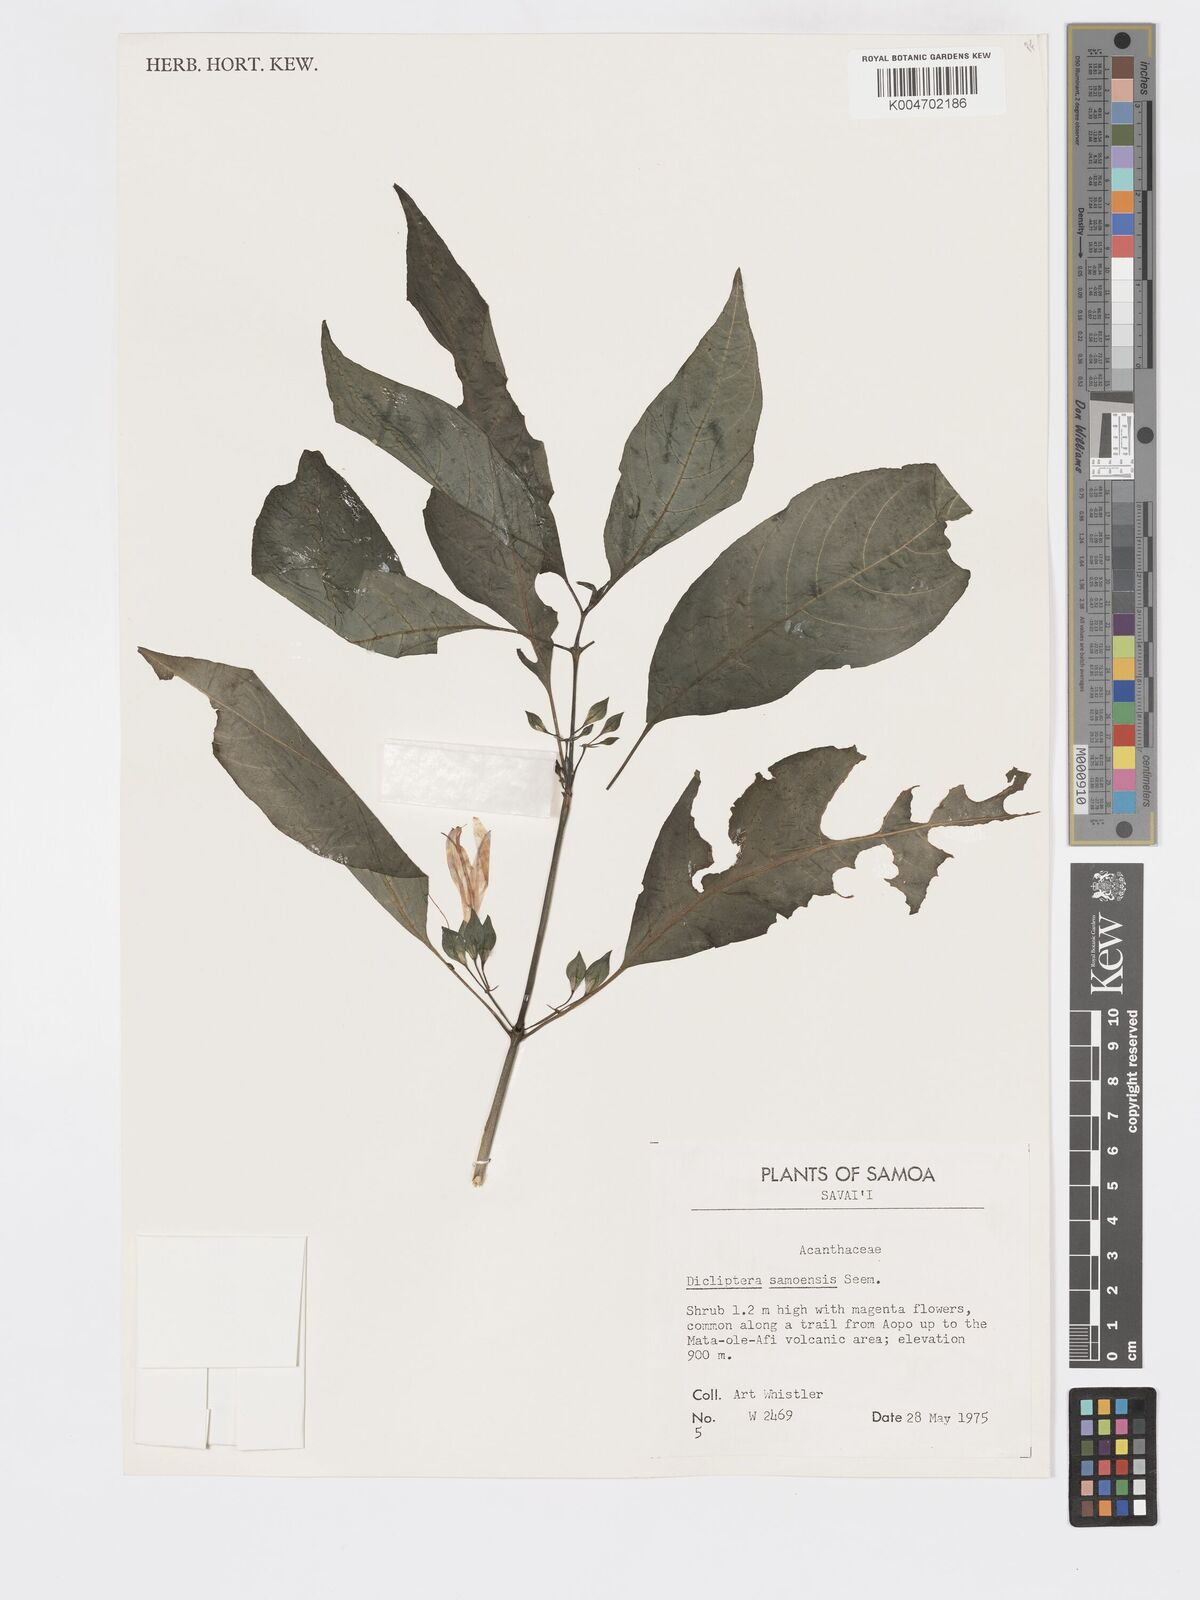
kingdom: Plantae
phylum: Tracheophyta
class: Magnoliopsida
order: Lamiales
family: Acanthaceae
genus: Dicliptera
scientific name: Dicliptera samoensis
